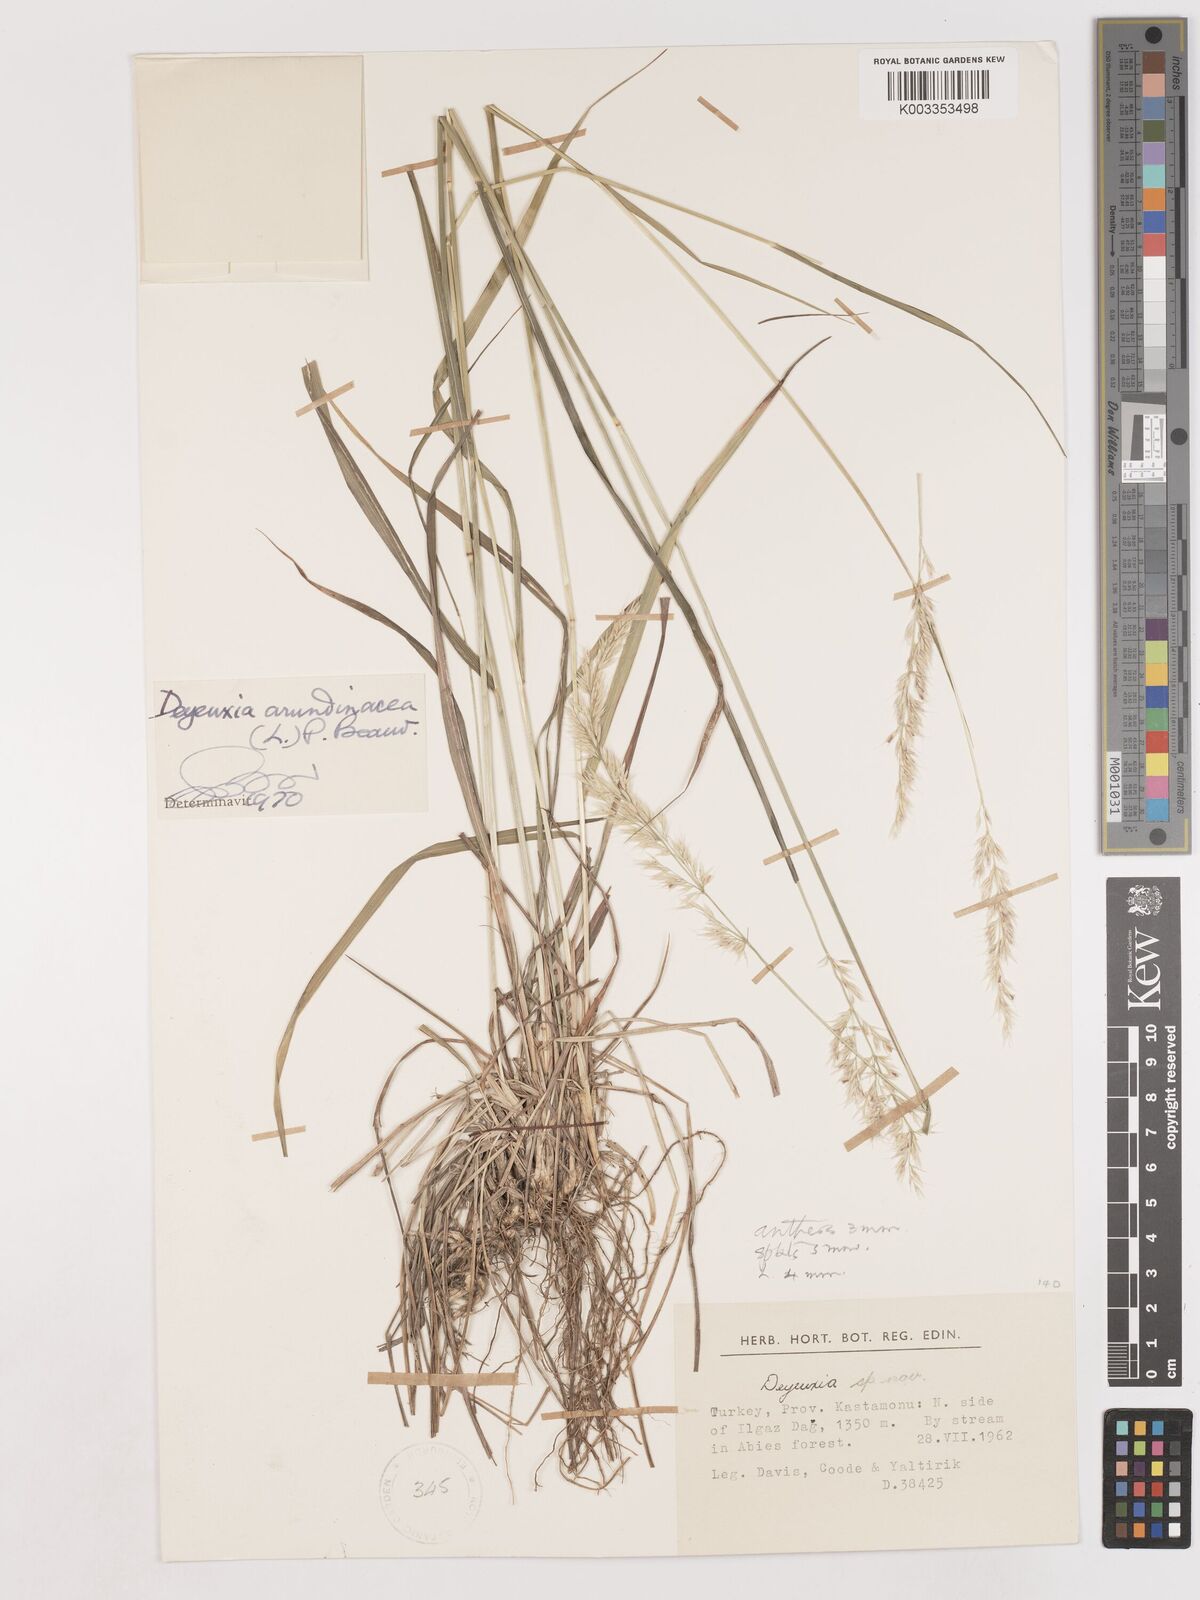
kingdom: Plantae
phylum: Tracheophyta
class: Liliopsida
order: Poales
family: Poaceae
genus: Calamagrostis
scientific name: Calamagrostis
